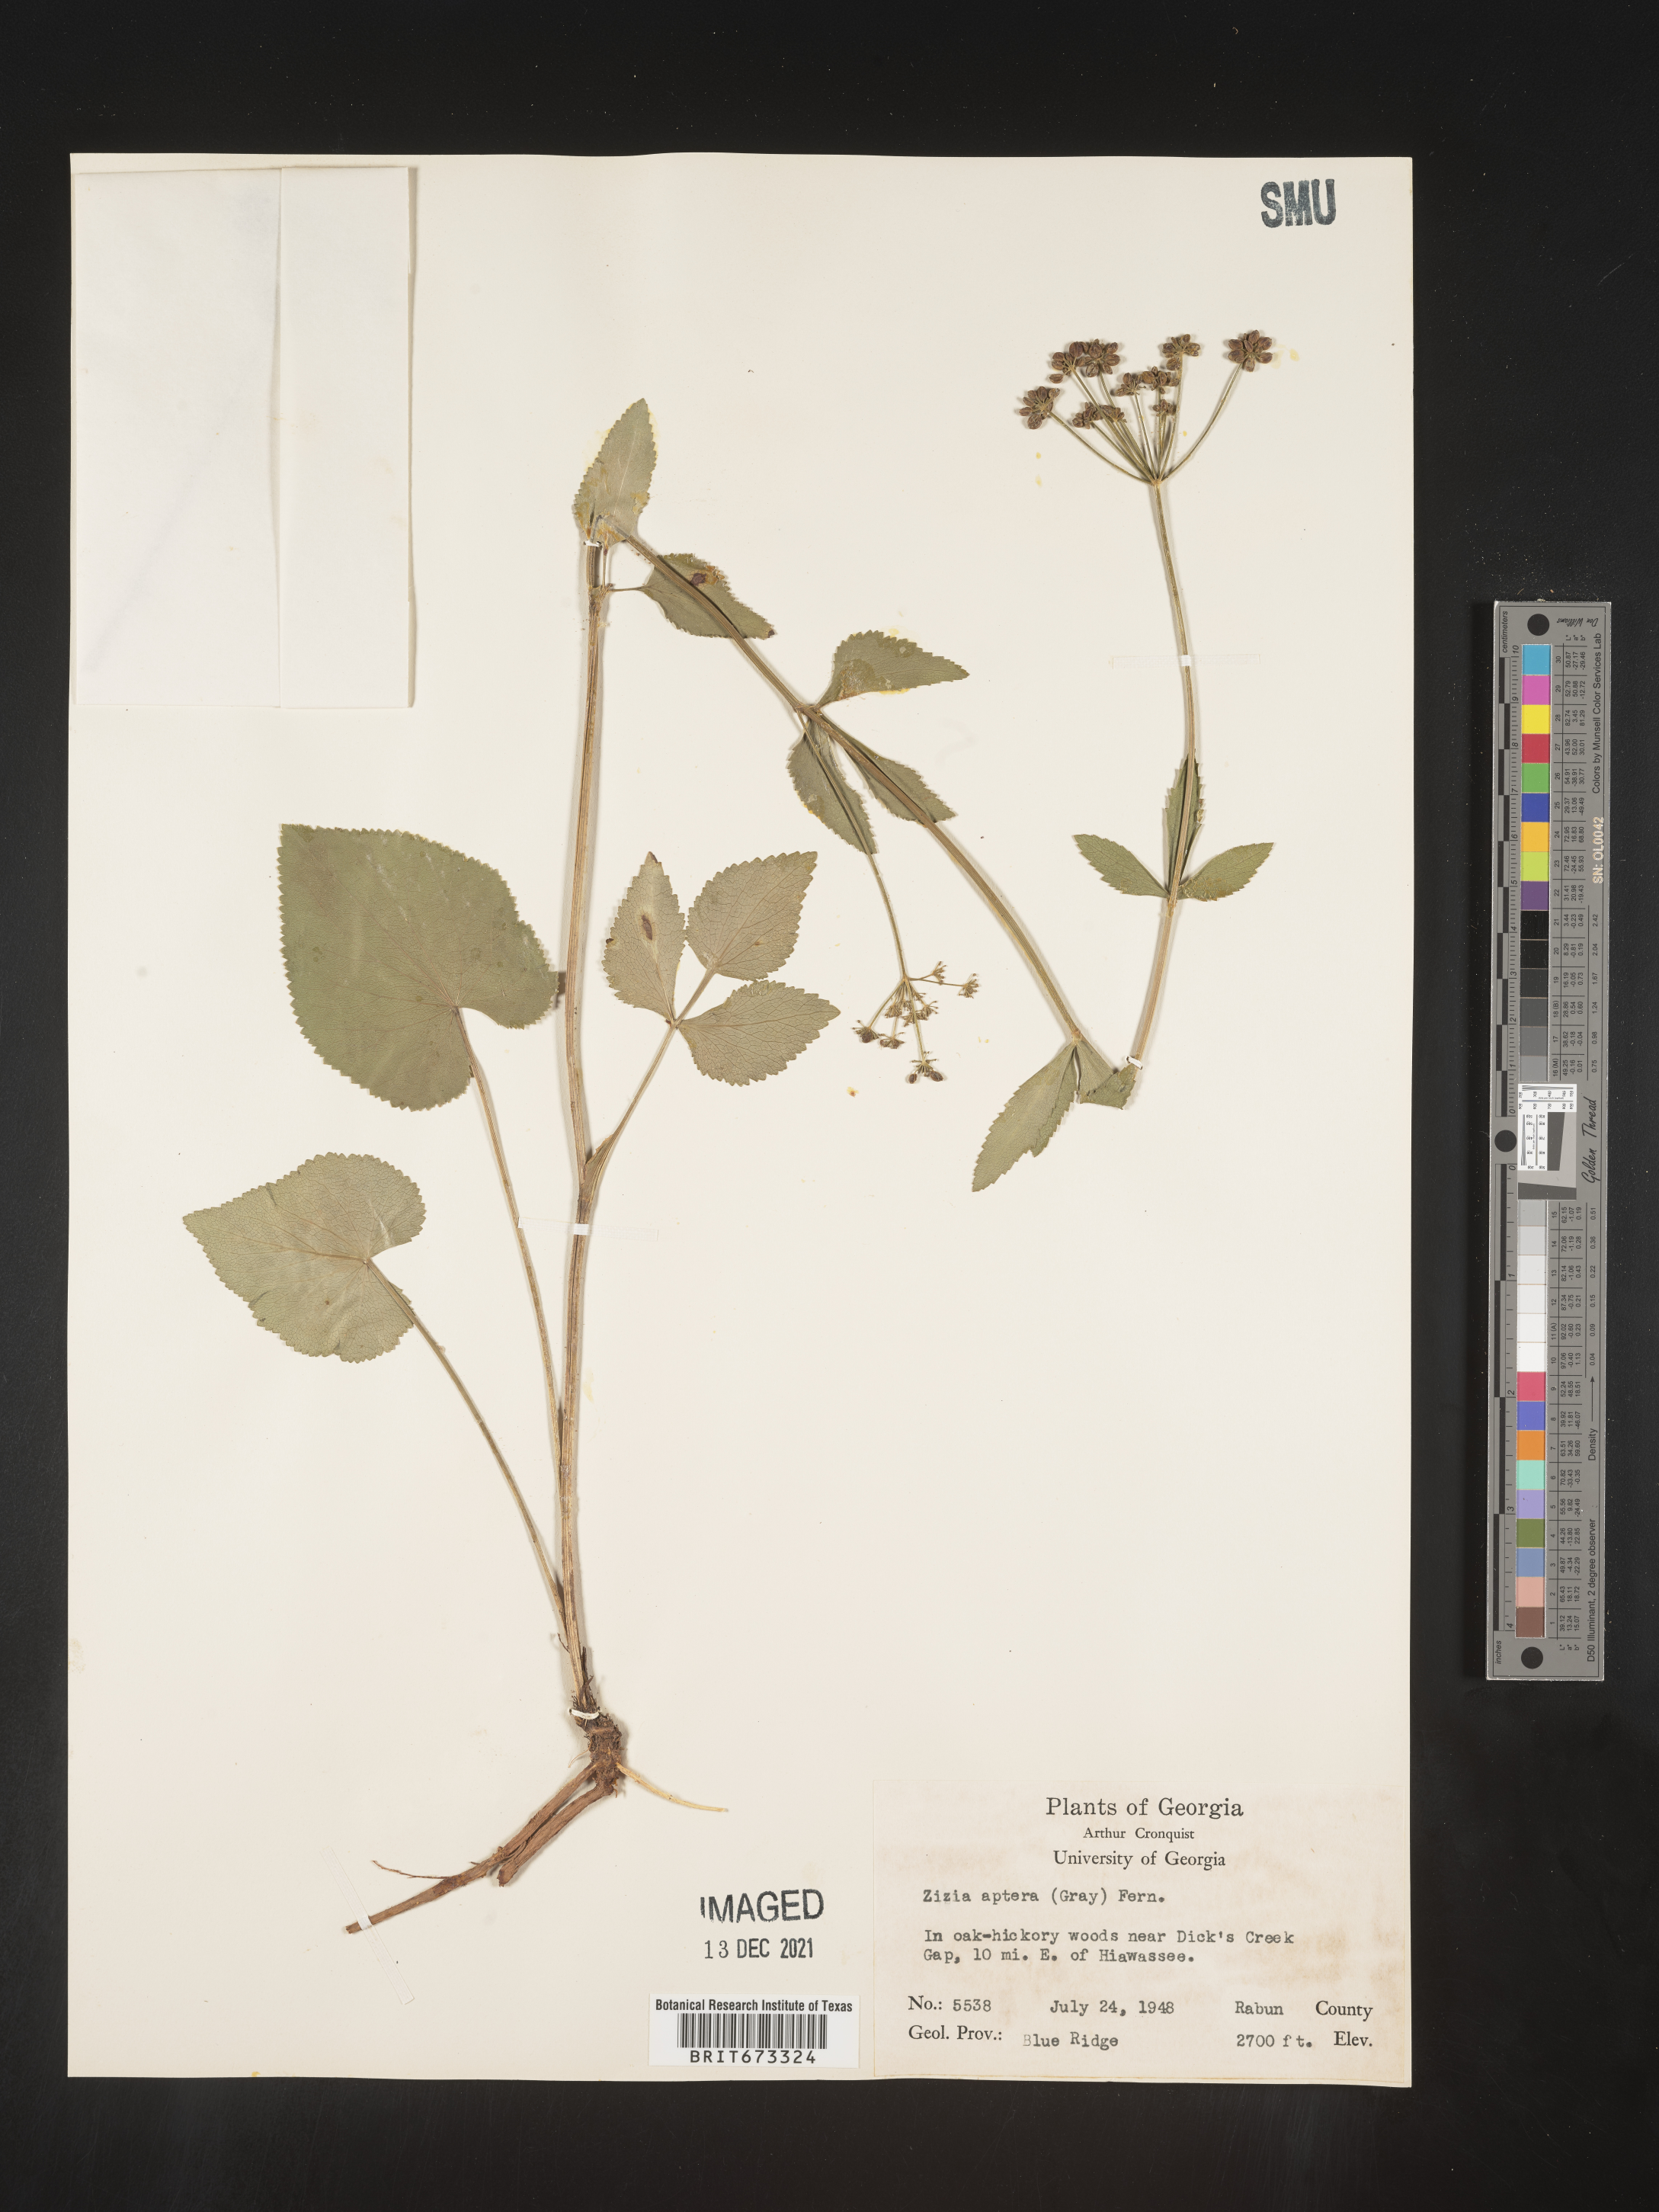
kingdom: Plantae
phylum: Tracheophyta
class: Magnoliopsida
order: Apiales
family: Apiaceae
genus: Zizia
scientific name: Zizia aptera
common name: Heart-leaved alexanders
